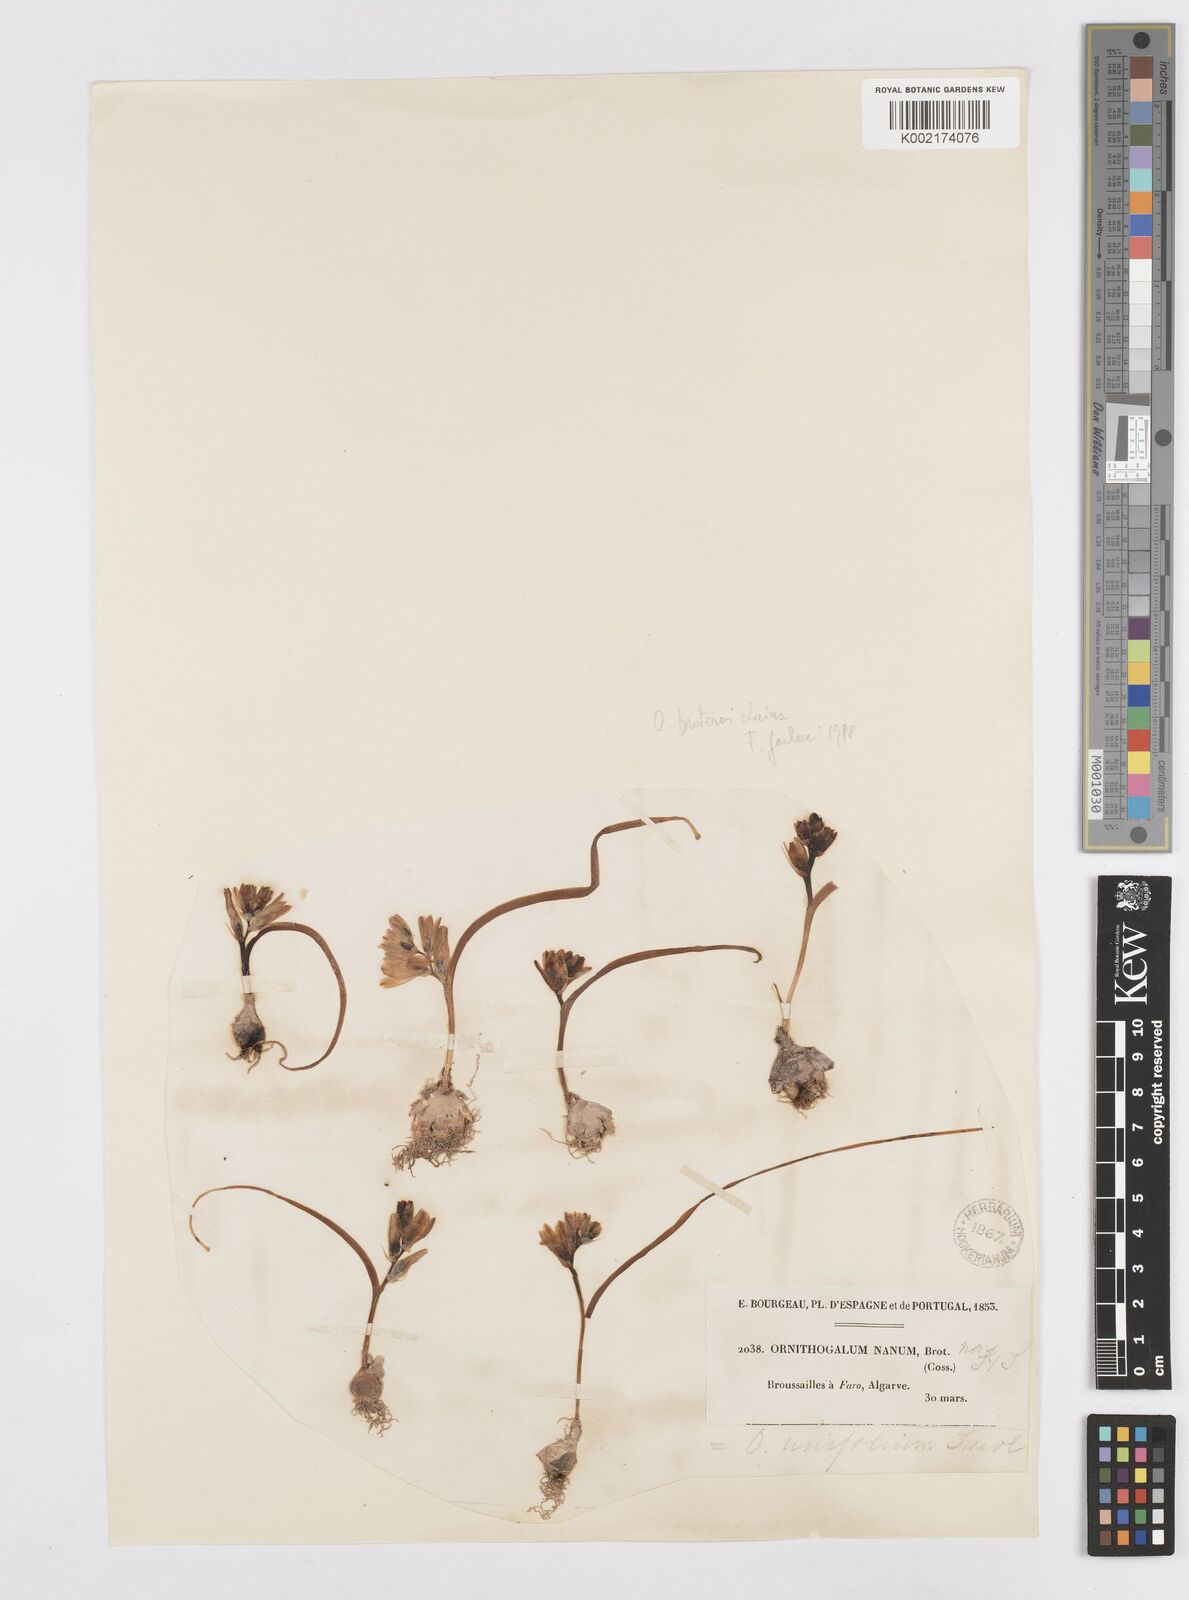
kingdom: Plantae
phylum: Tracheophyta
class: Liliopsida
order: Asparagales
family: Asparagaceae
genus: Ornithogalum
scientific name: Ornithogalum broteroi
